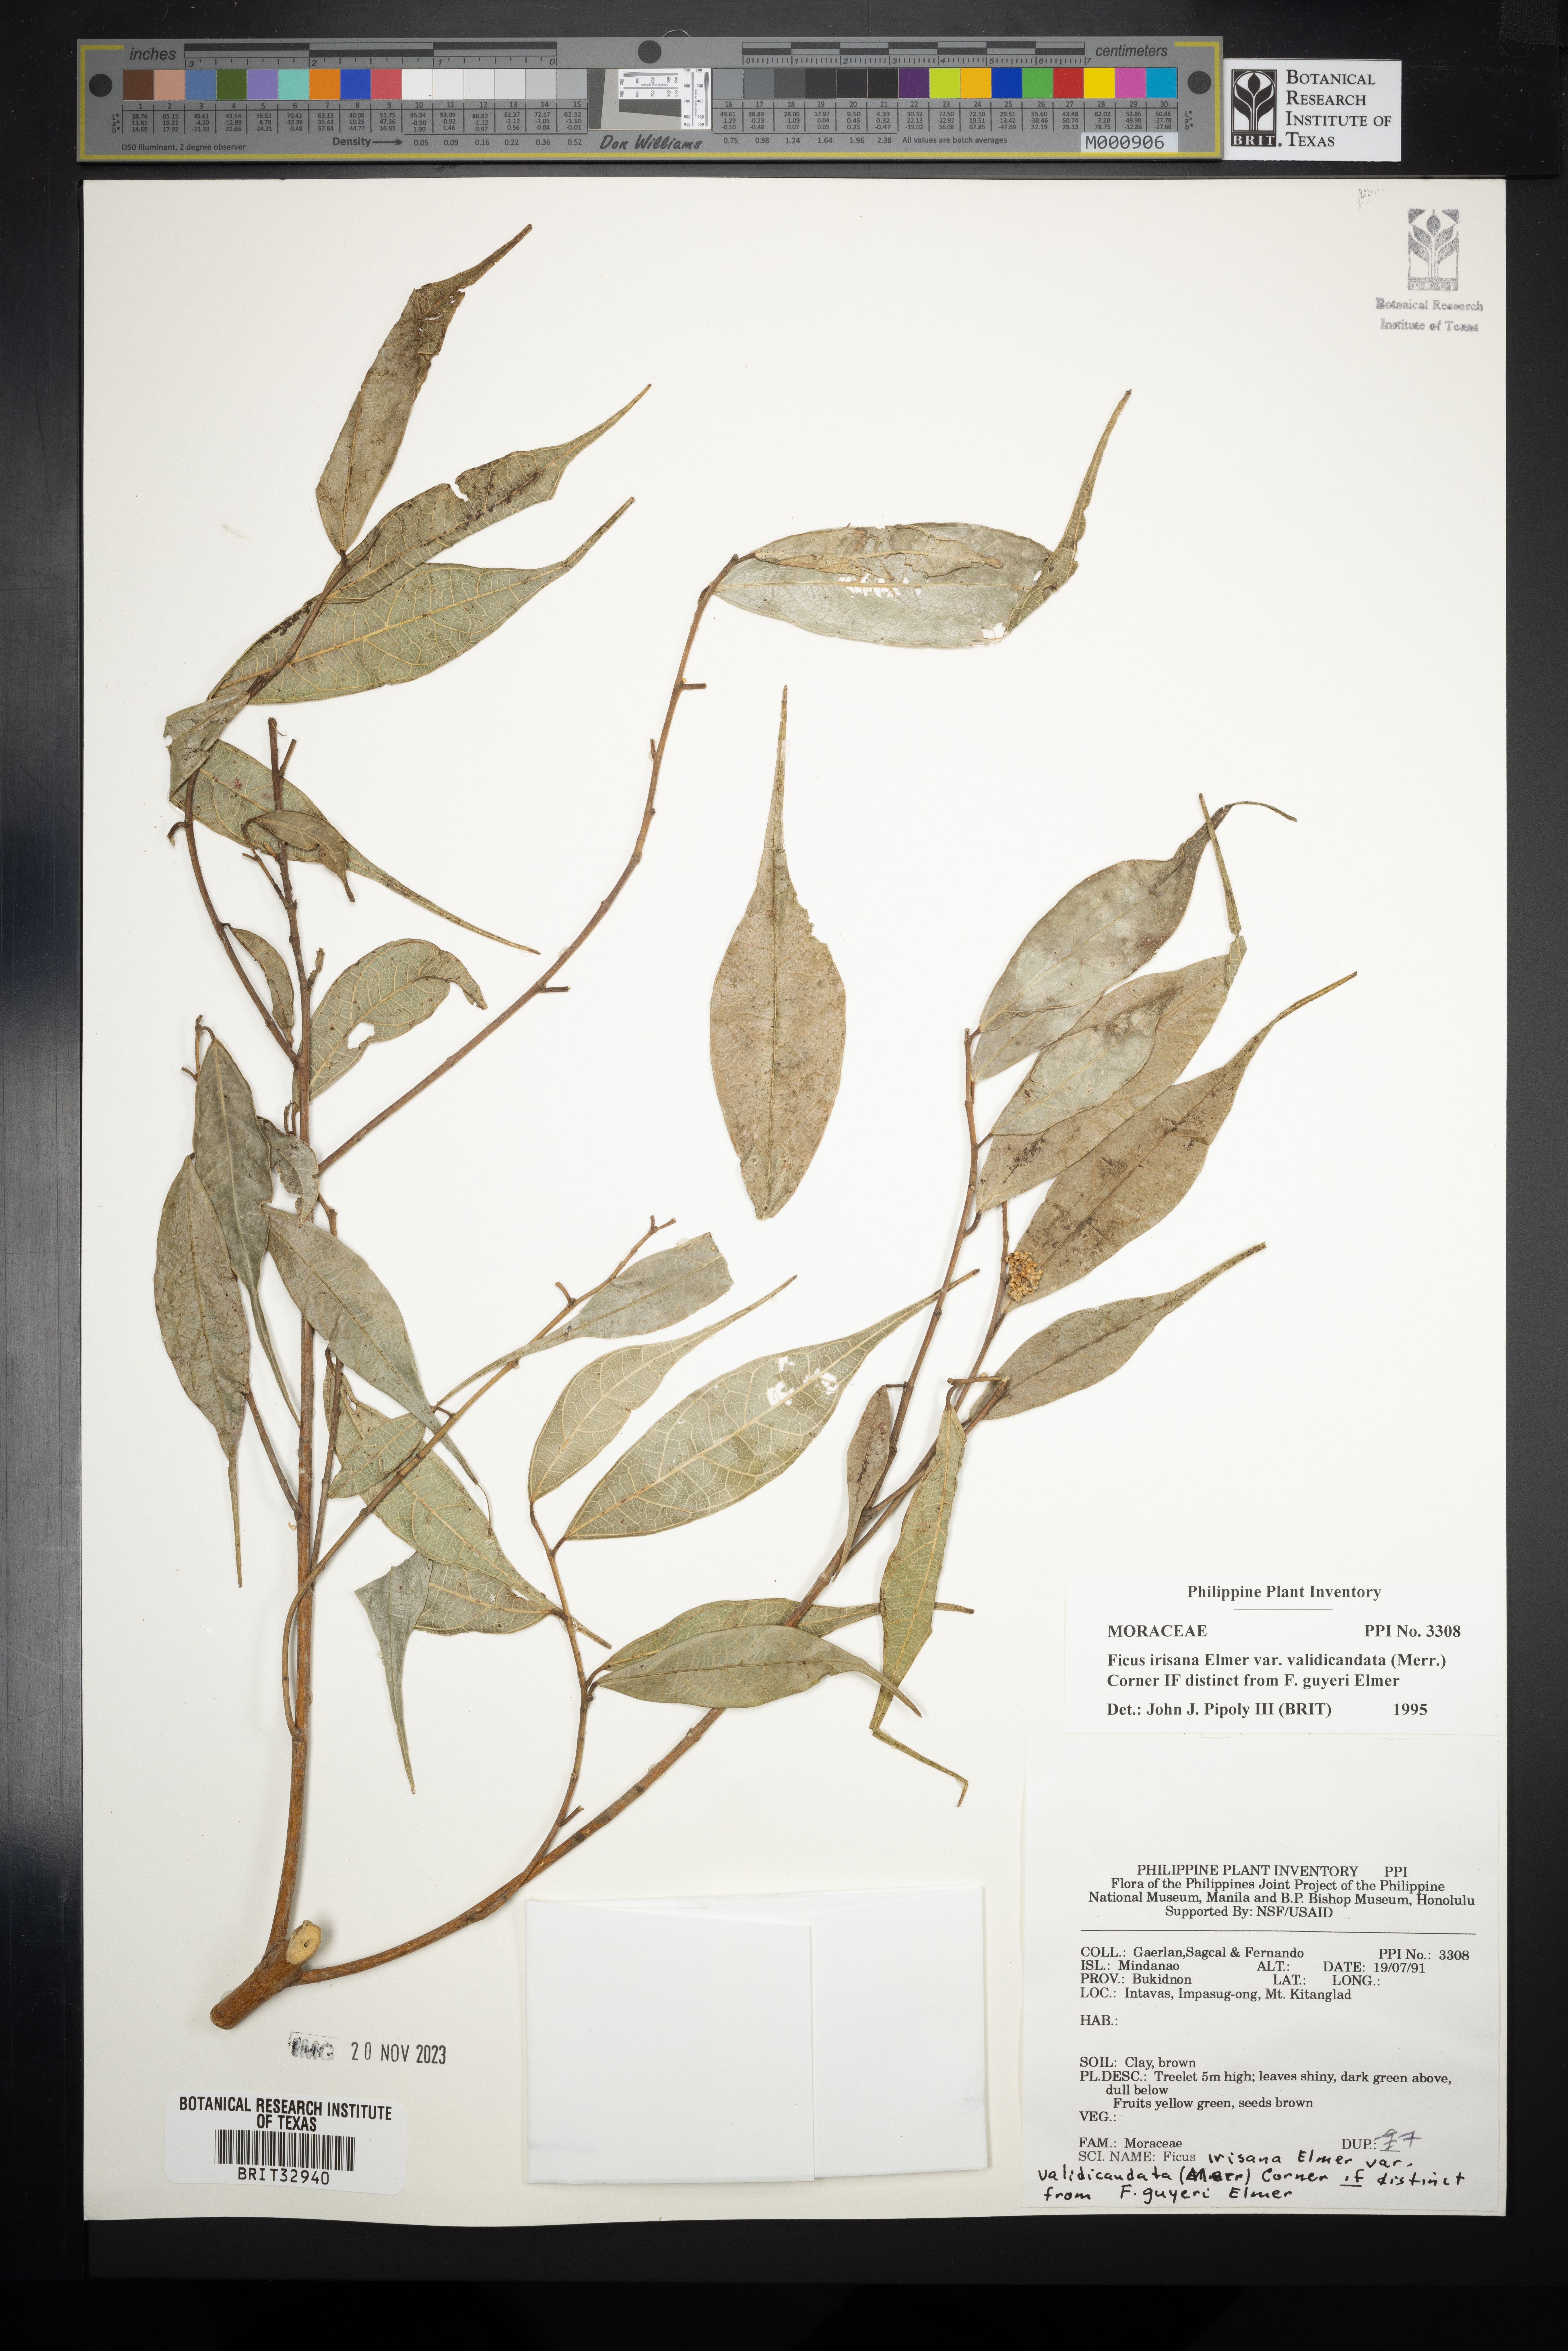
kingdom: Plantae
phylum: Tracheophyta
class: Magnoliopsida
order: Rosales
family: Moraceae
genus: Ficus
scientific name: Ficus ampelos
